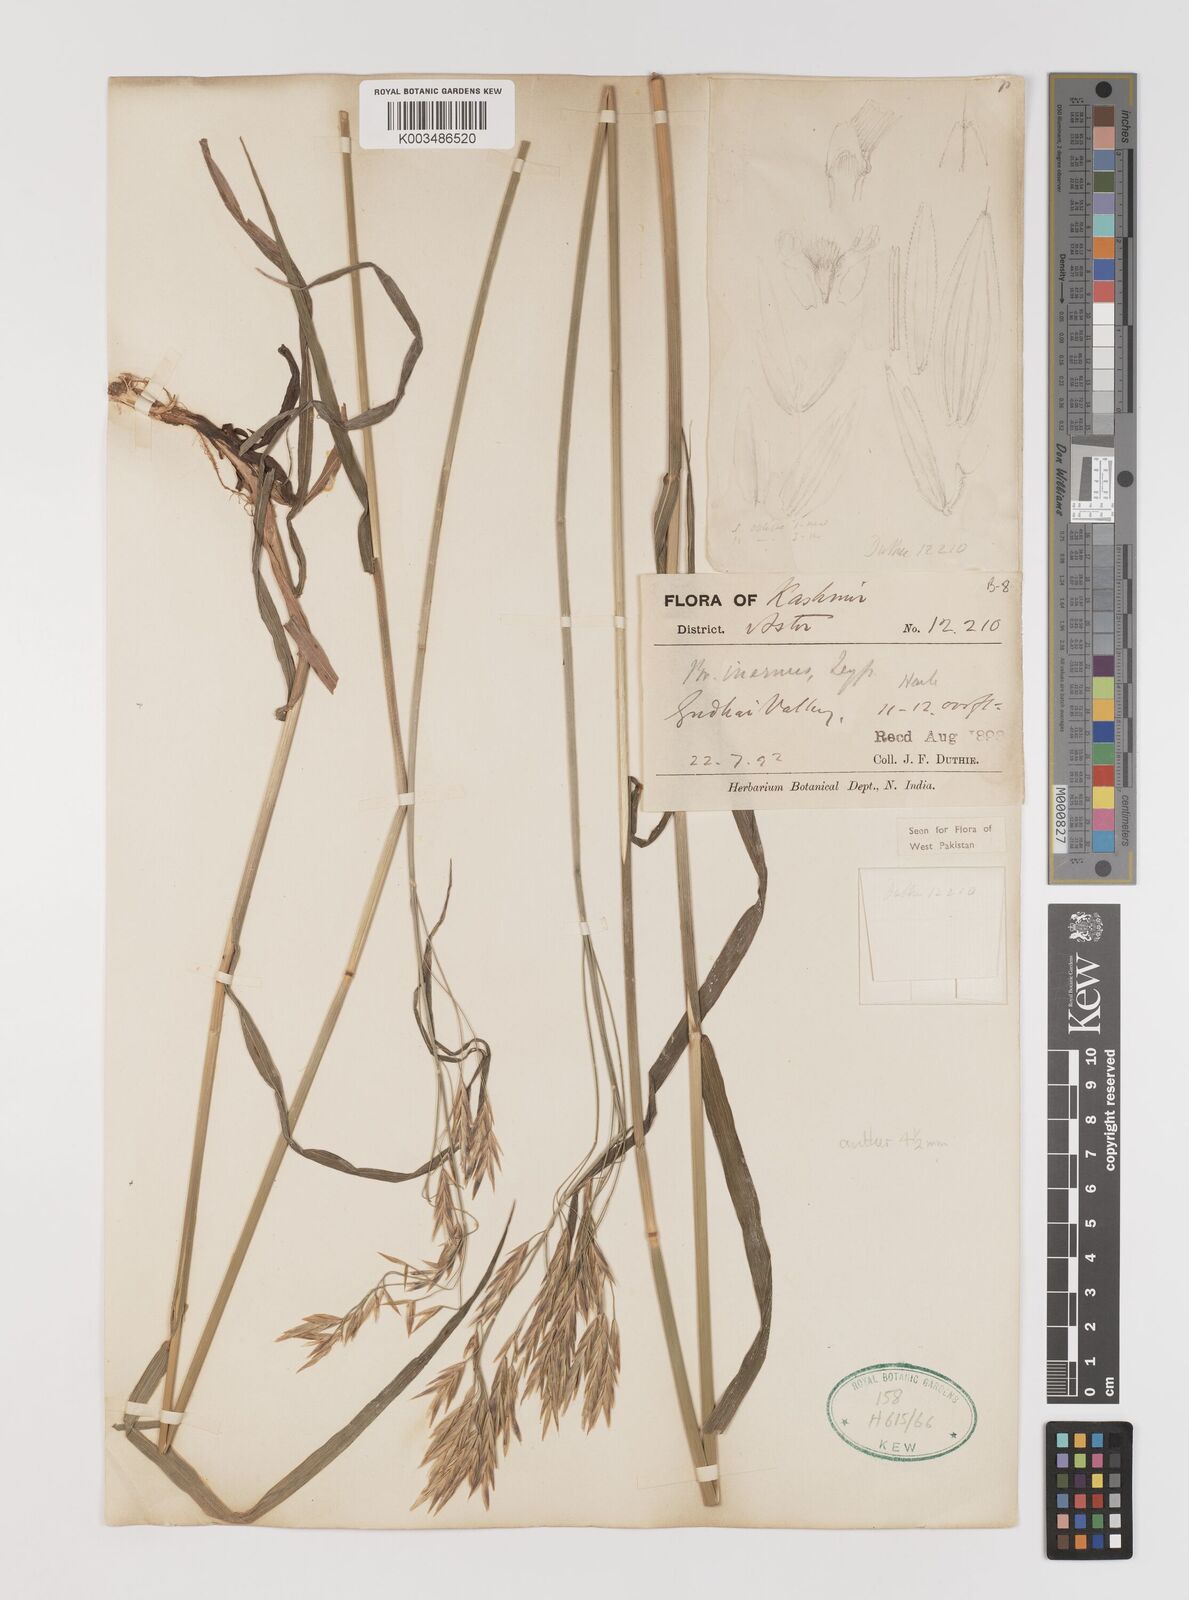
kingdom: Plantae
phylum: Tracheophyta
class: Liliopsida
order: Poales
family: Poaceae
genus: Bromus
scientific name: Bromus inermis
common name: Smooth brome
